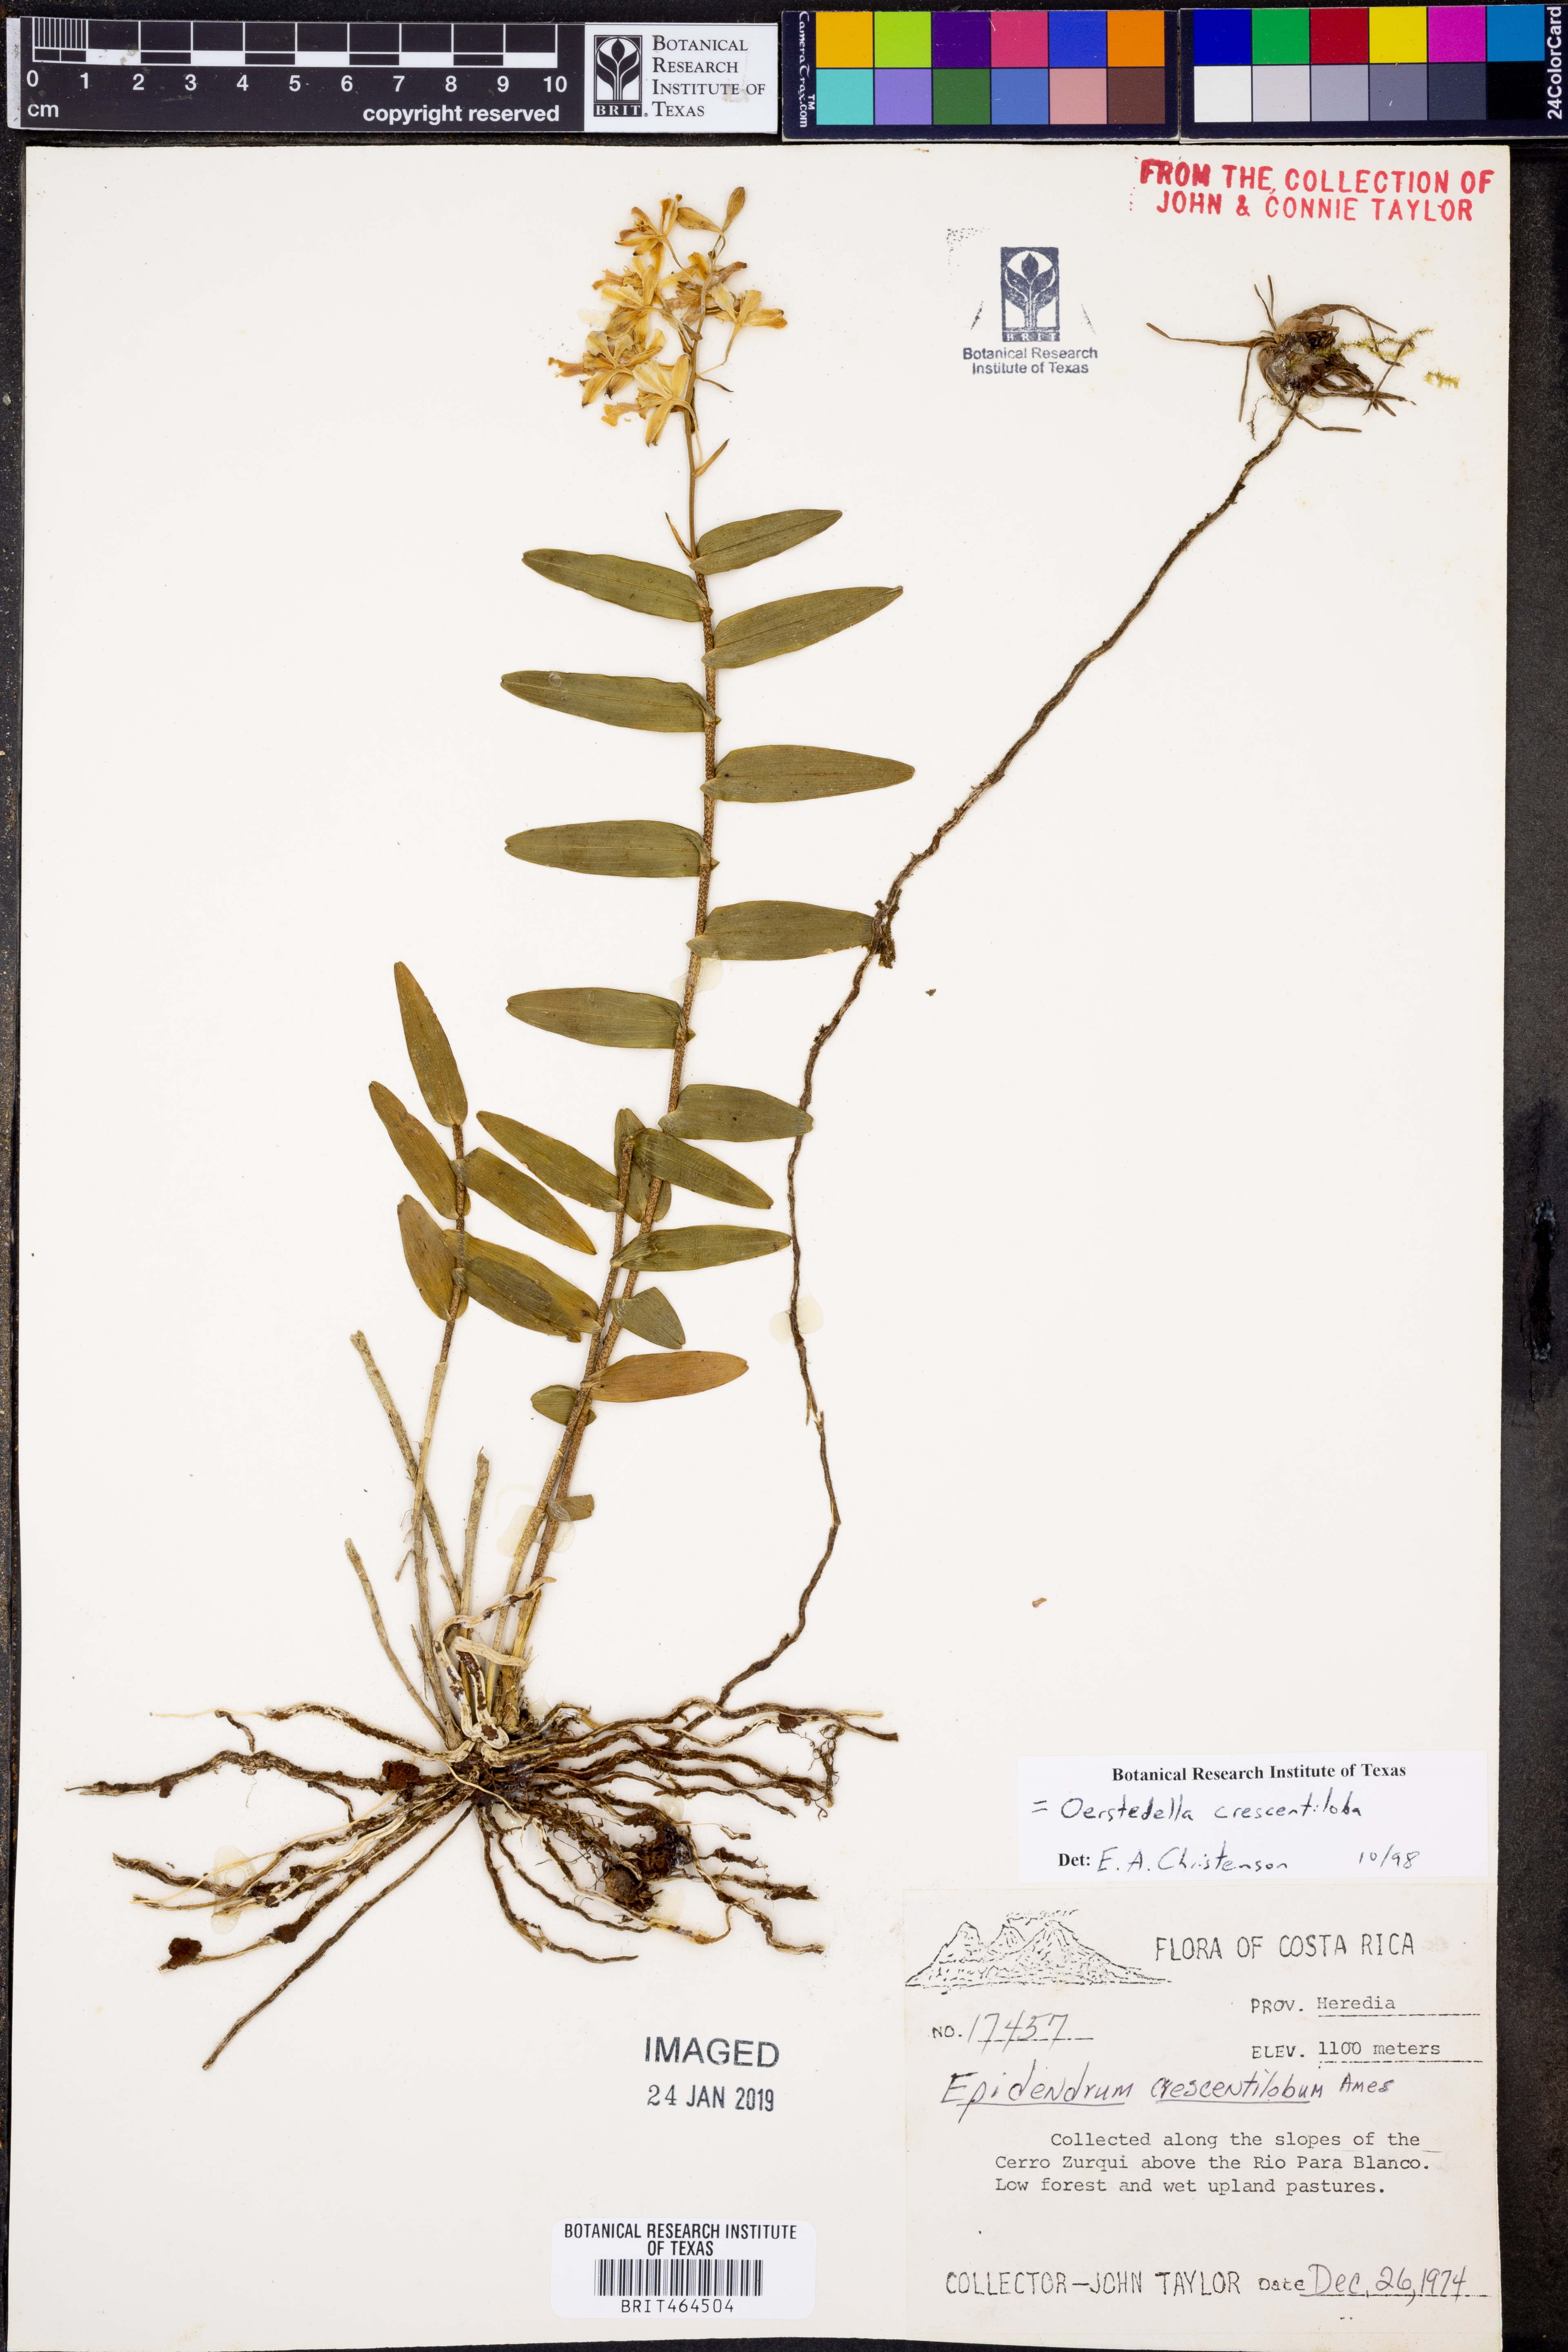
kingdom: Plantae
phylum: Tracheophyta
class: Liliopsida
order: Asparagales
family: Orchidaceae
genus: Epidendrum
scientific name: Epidendrum crescentilobum
